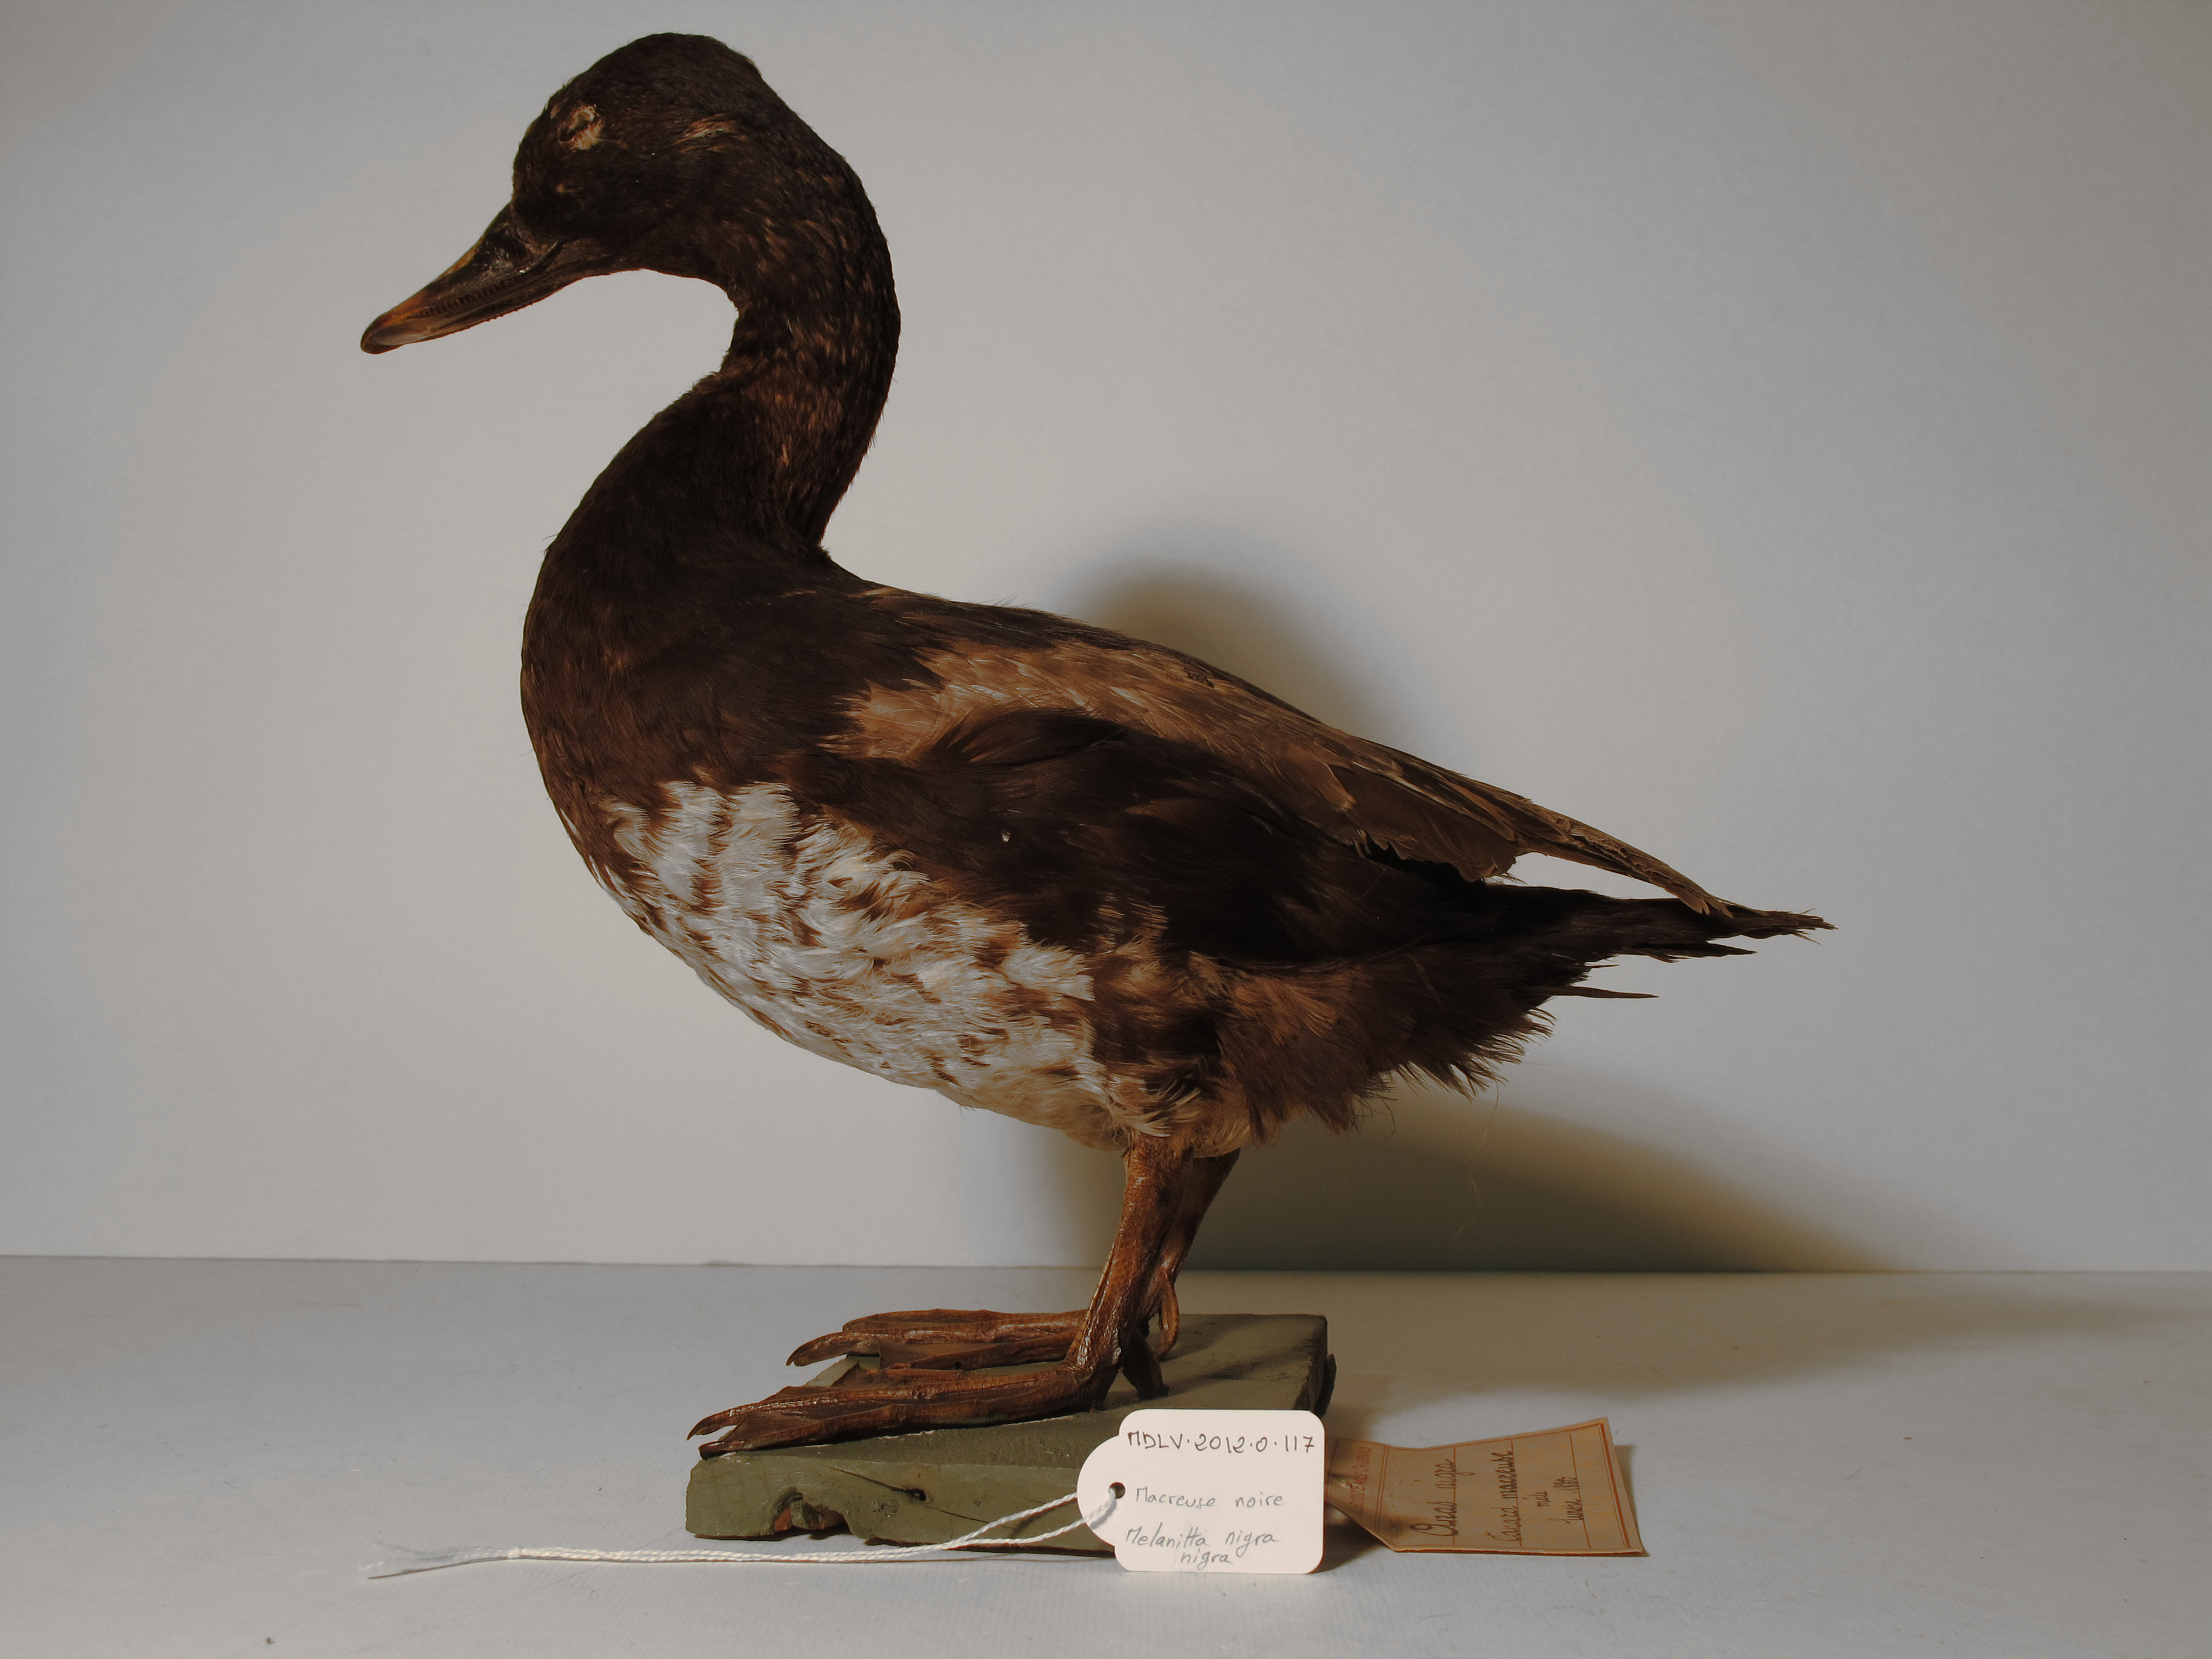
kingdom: Animalia
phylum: Chordata
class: Aves
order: Anseriformes
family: Anatidae
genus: Melanitta
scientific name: Melanitta nigra
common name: Black Scoter
